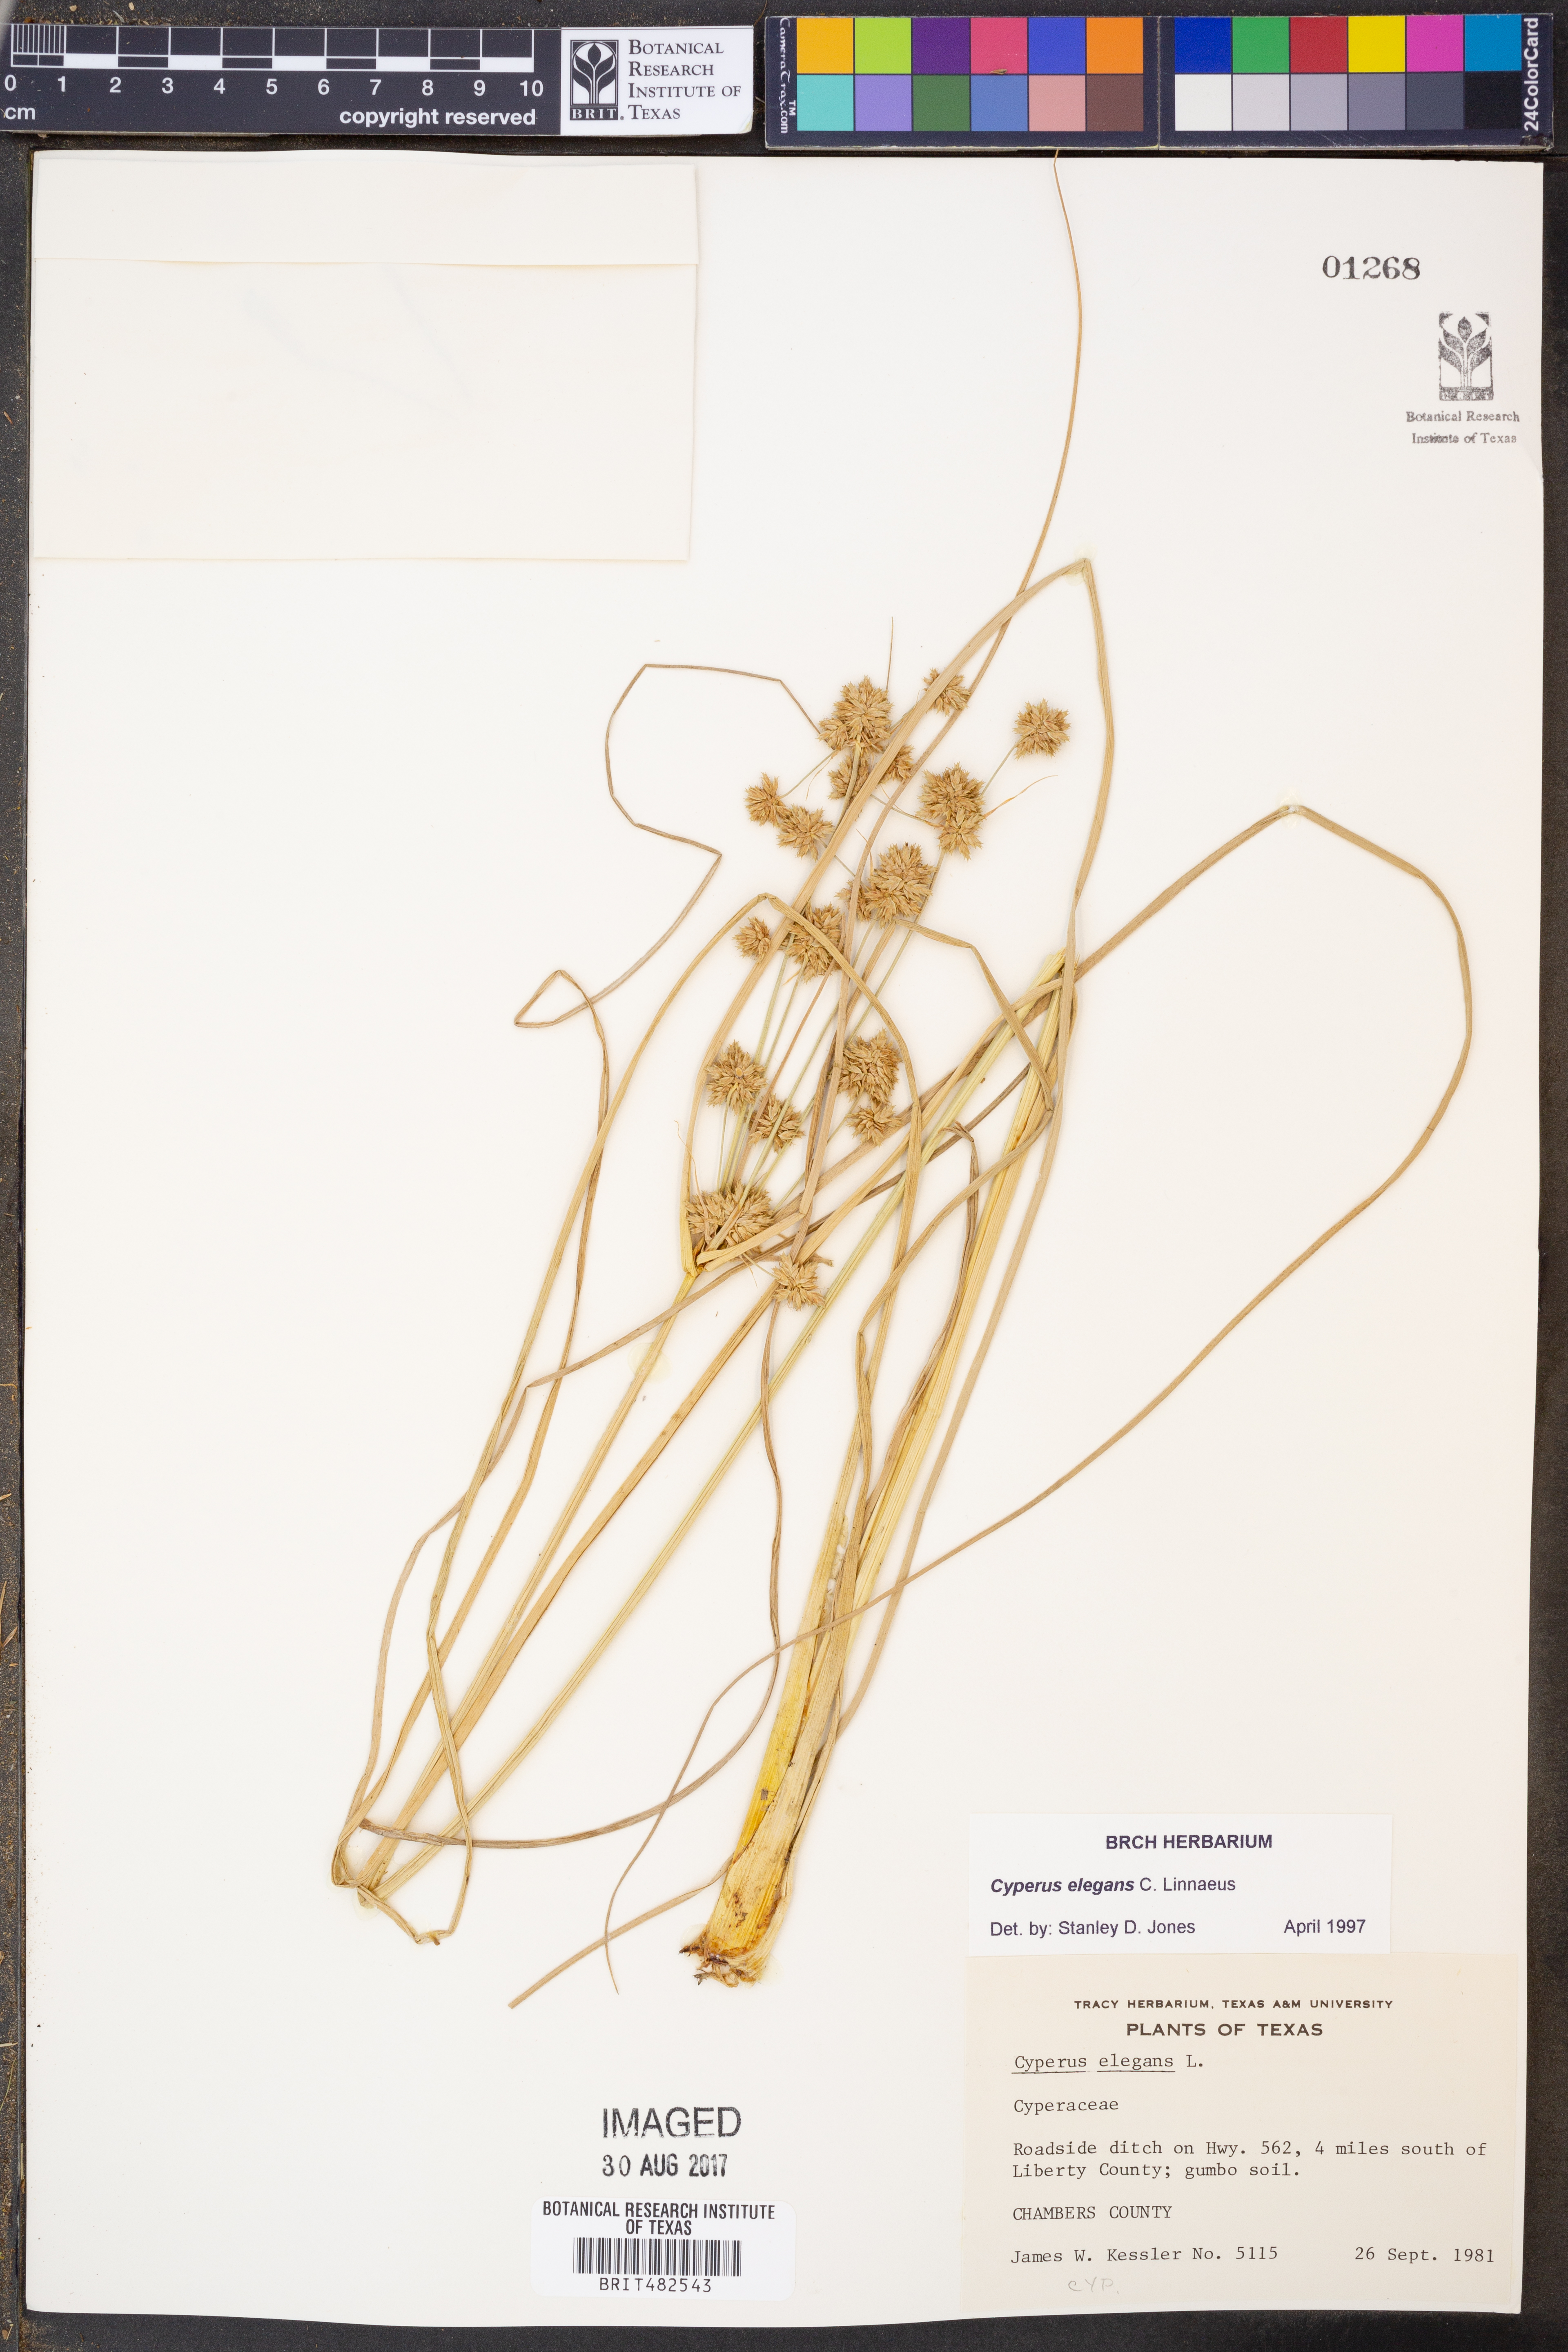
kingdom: Plantae
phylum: Tracheophyta
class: Liliopsida
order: Poales
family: Cyperaceae
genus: Cyperus
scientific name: Cyperus elegans
